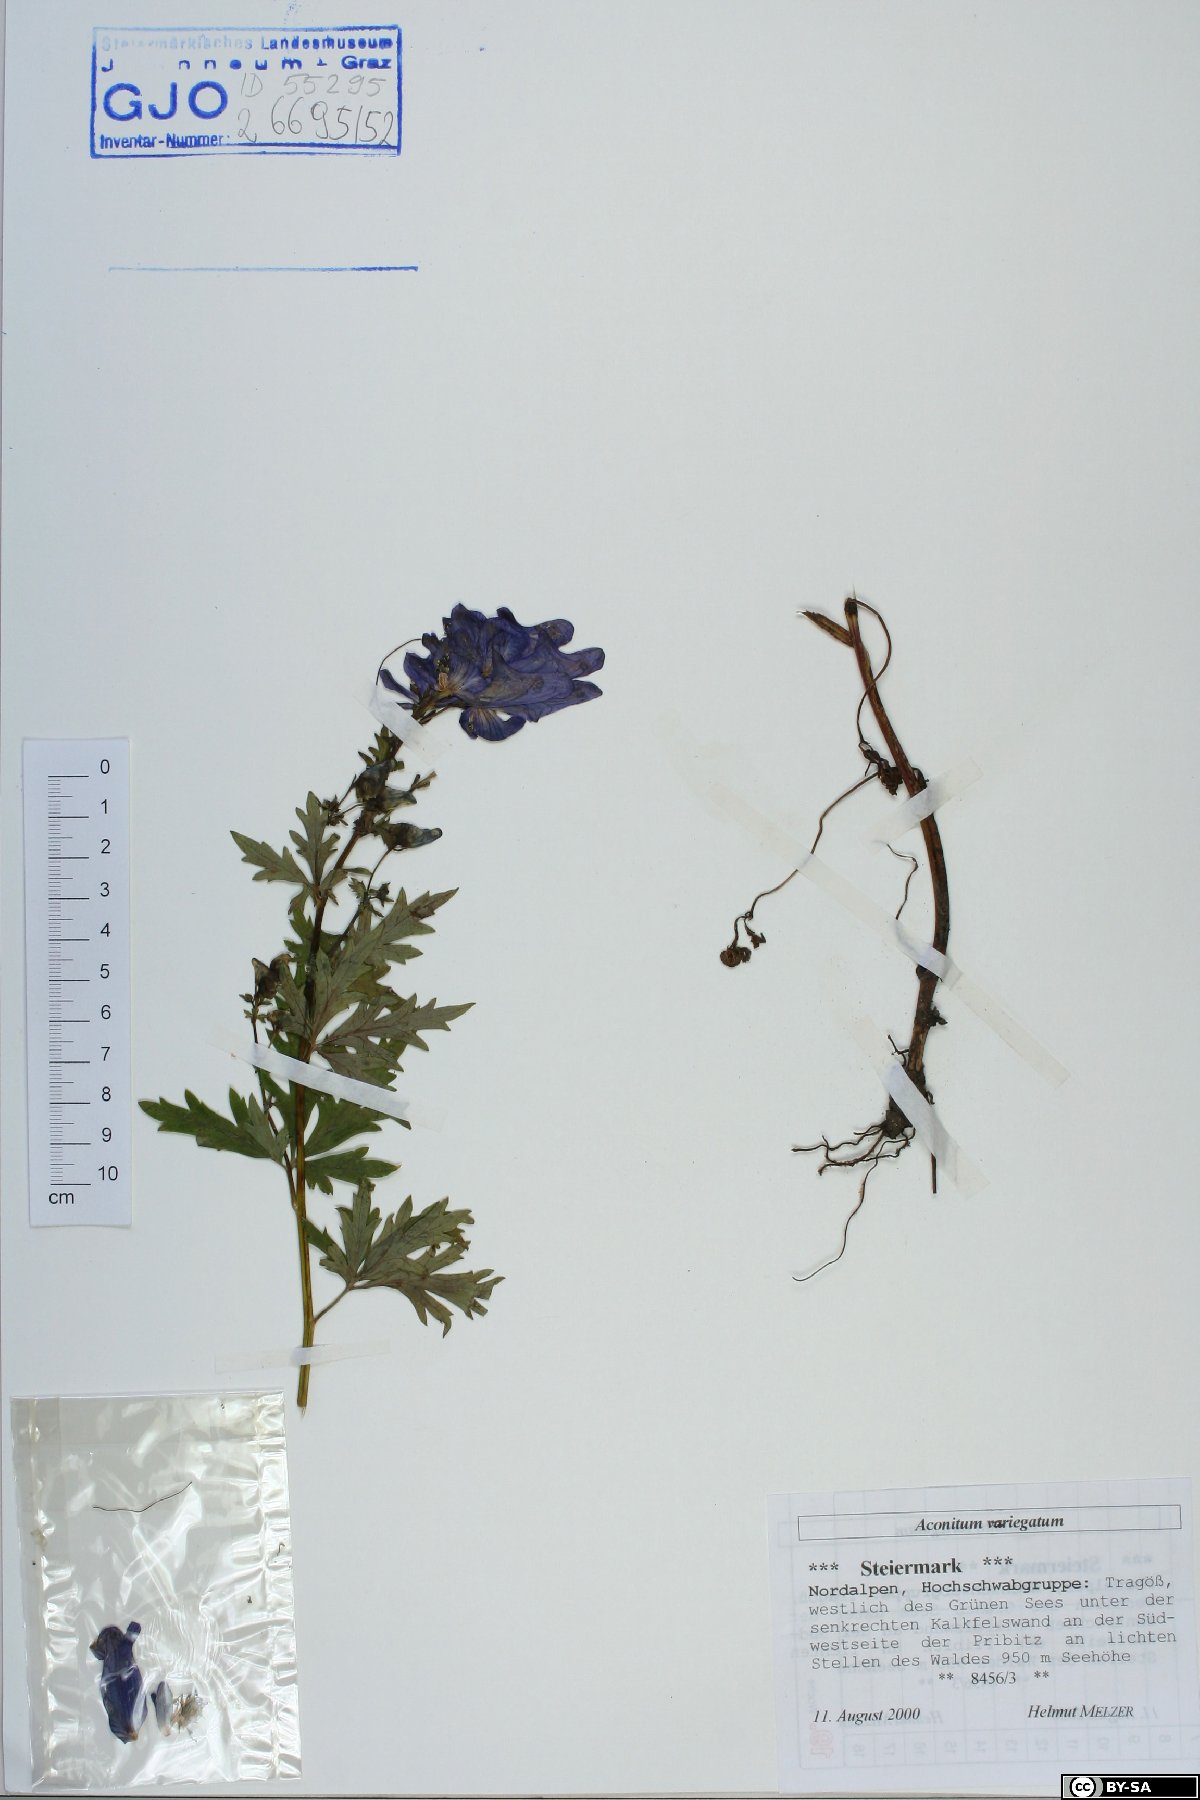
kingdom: Plantae
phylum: Tracheophyta
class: Magnoliopsida
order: Ranunculales
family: Ranunculaceae
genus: Aconitum
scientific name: Aconitum variegatum
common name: Manchurian monkshood
